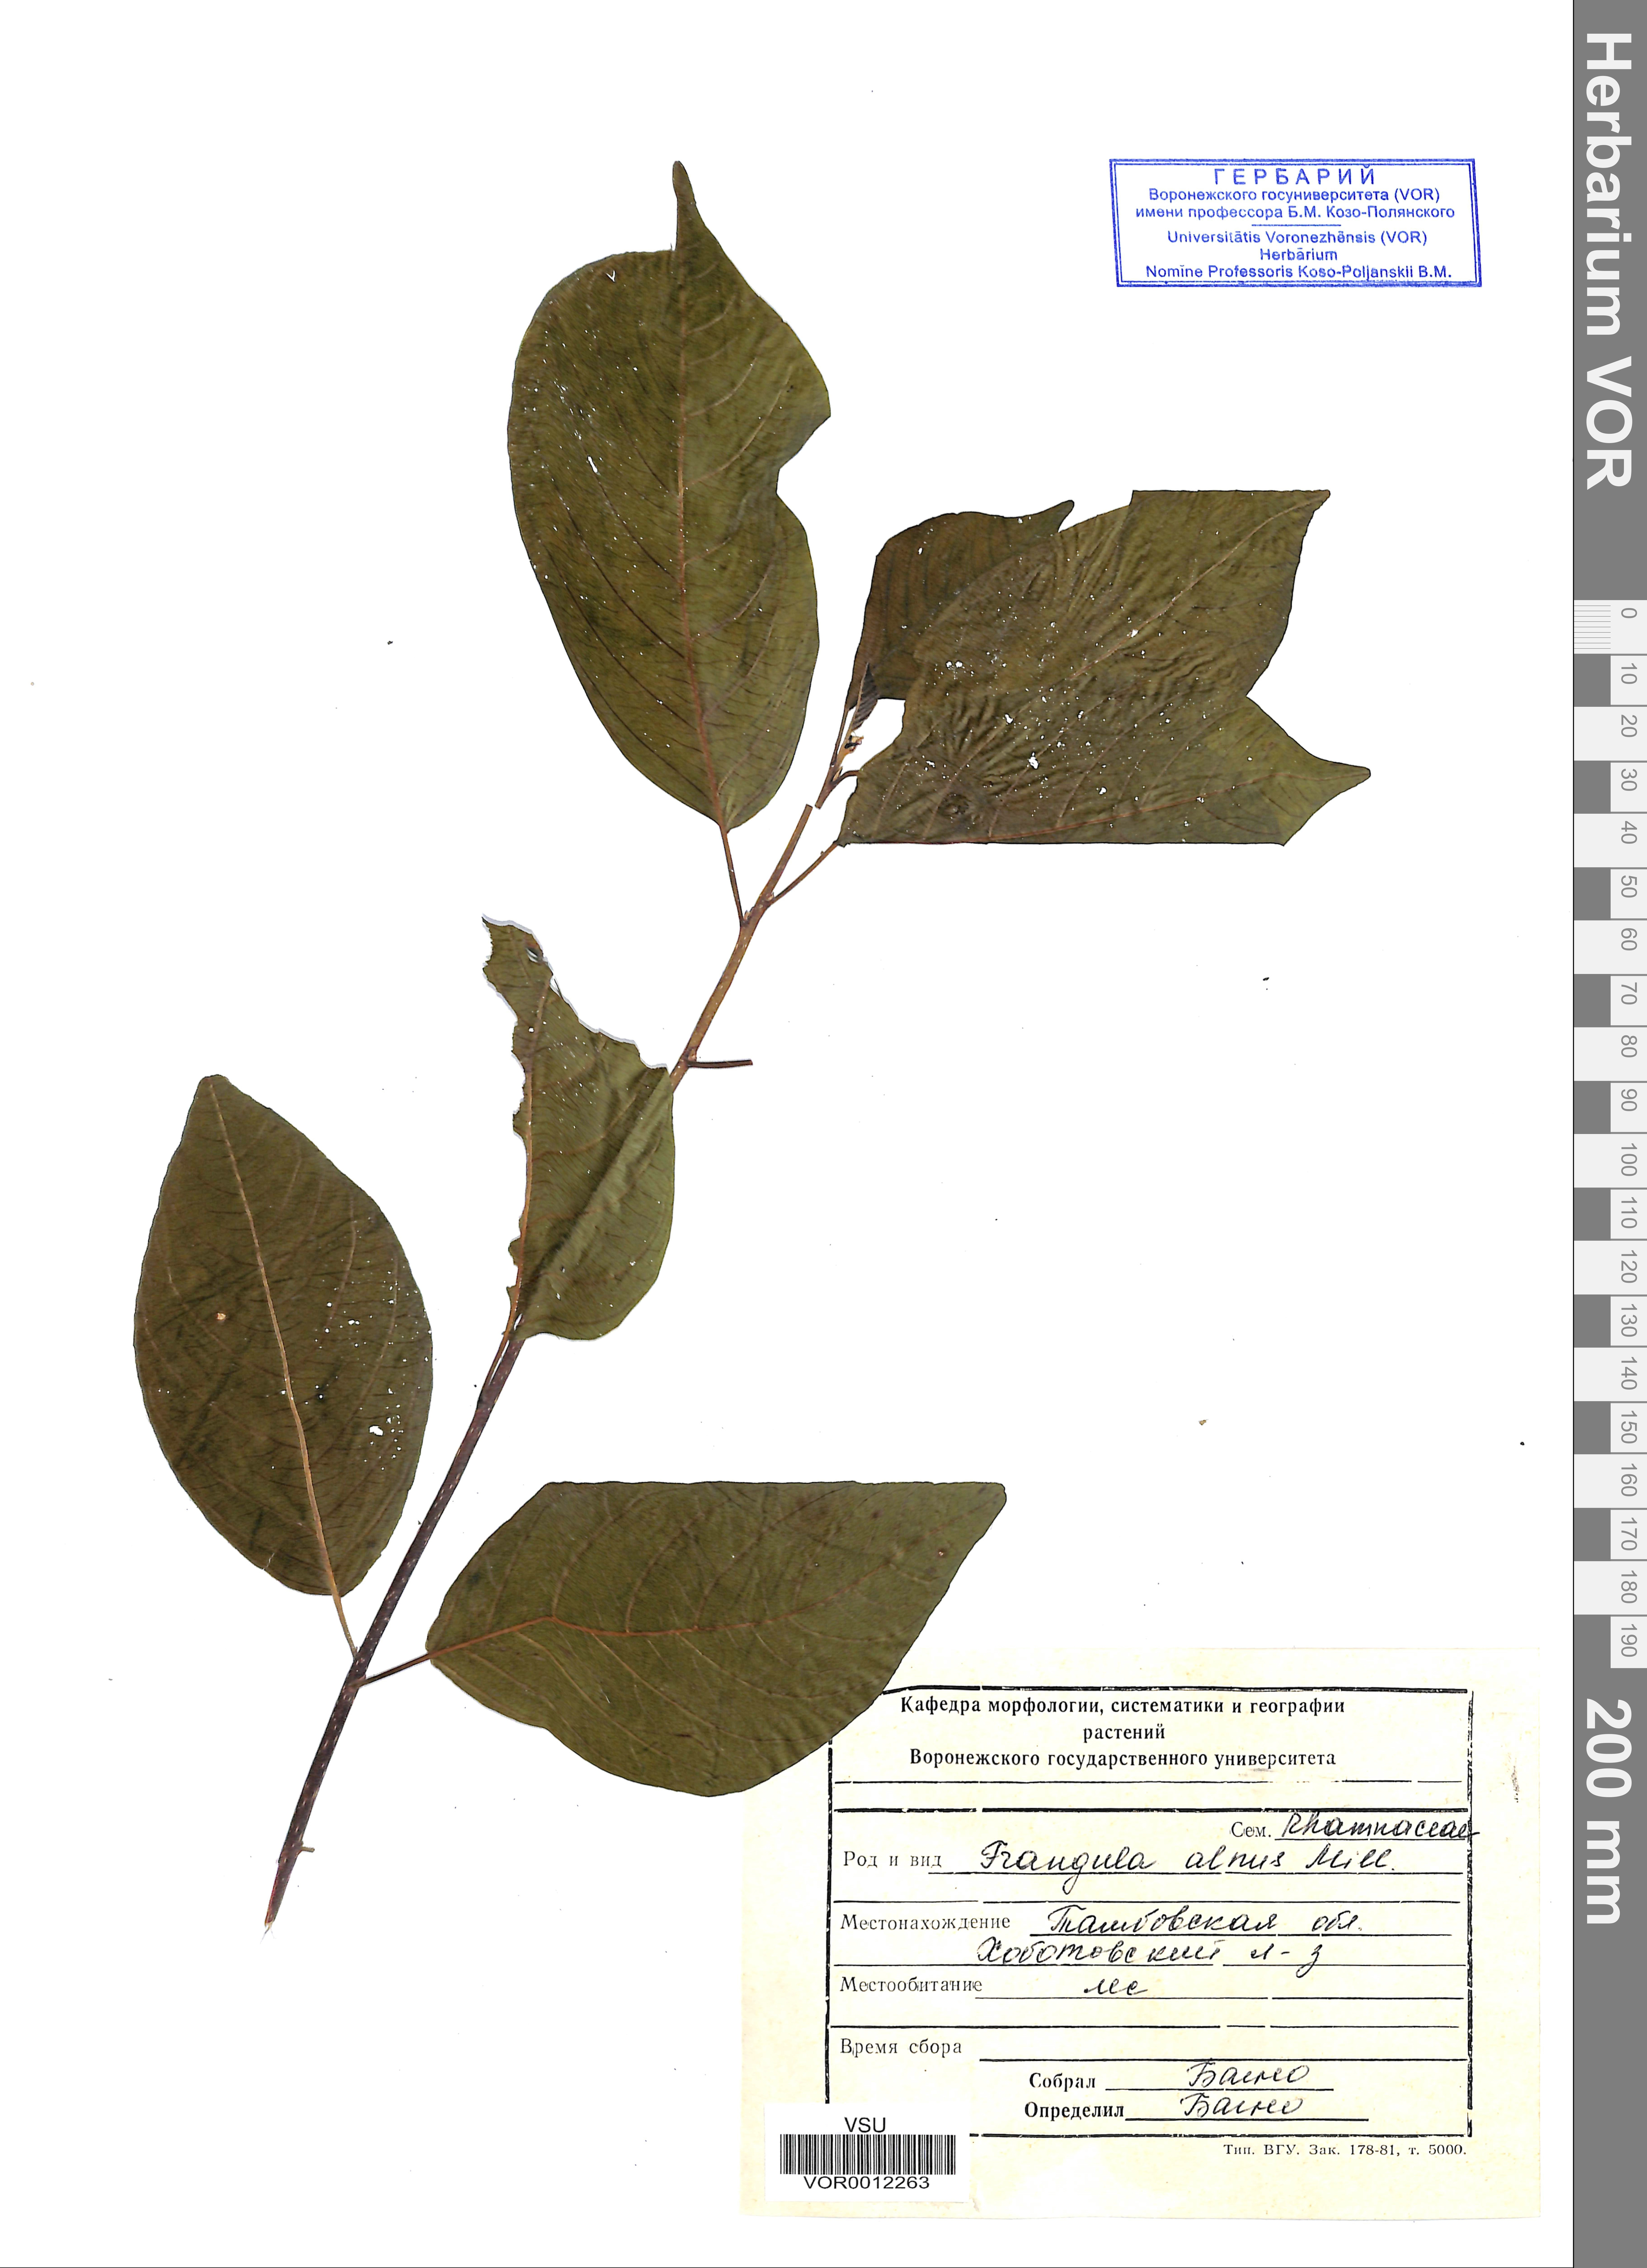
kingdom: Plantae
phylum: Tracheophyta
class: Magnoliopsida
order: Rosales
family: Rhamnaceae
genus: Frangula
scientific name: Frangula alnus
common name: Alder buckthorn
